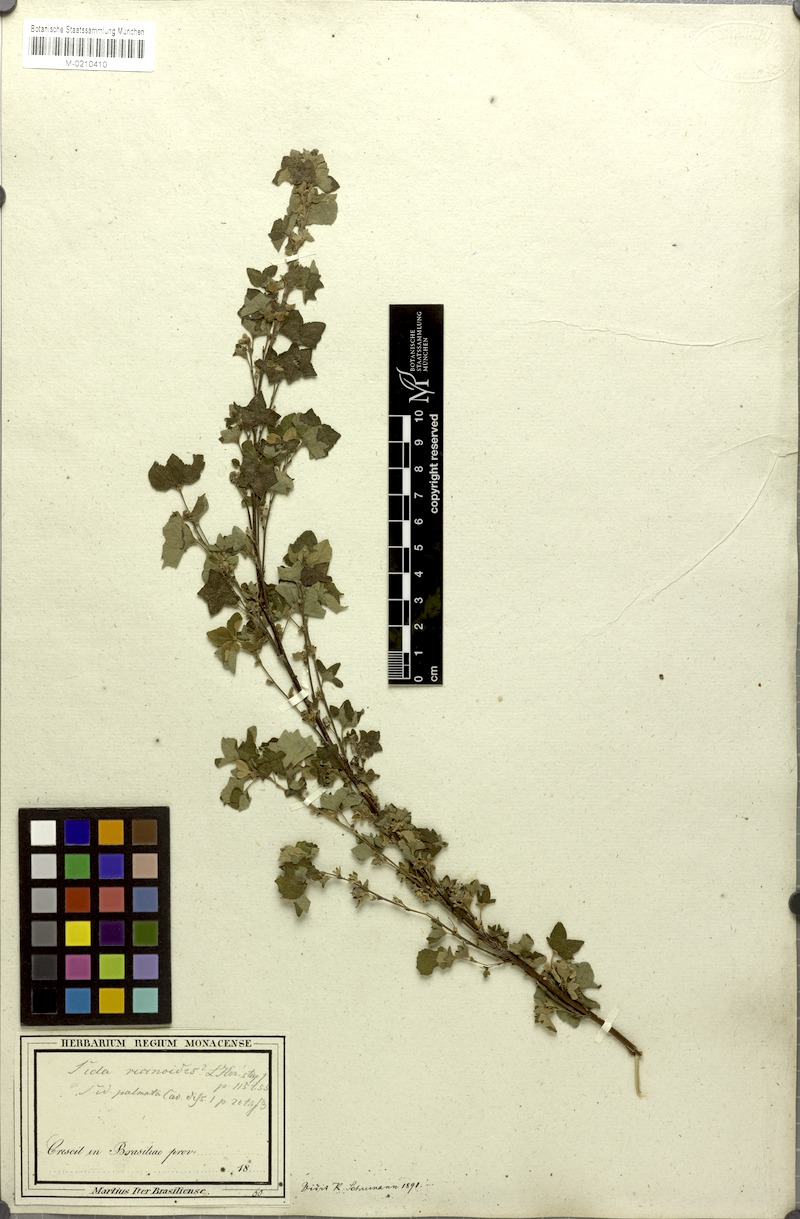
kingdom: Plantae
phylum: Tracheophyta
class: Magnoliopsida
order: Malvales
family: Malvaceae
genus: Sida
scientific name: Sida palmata
